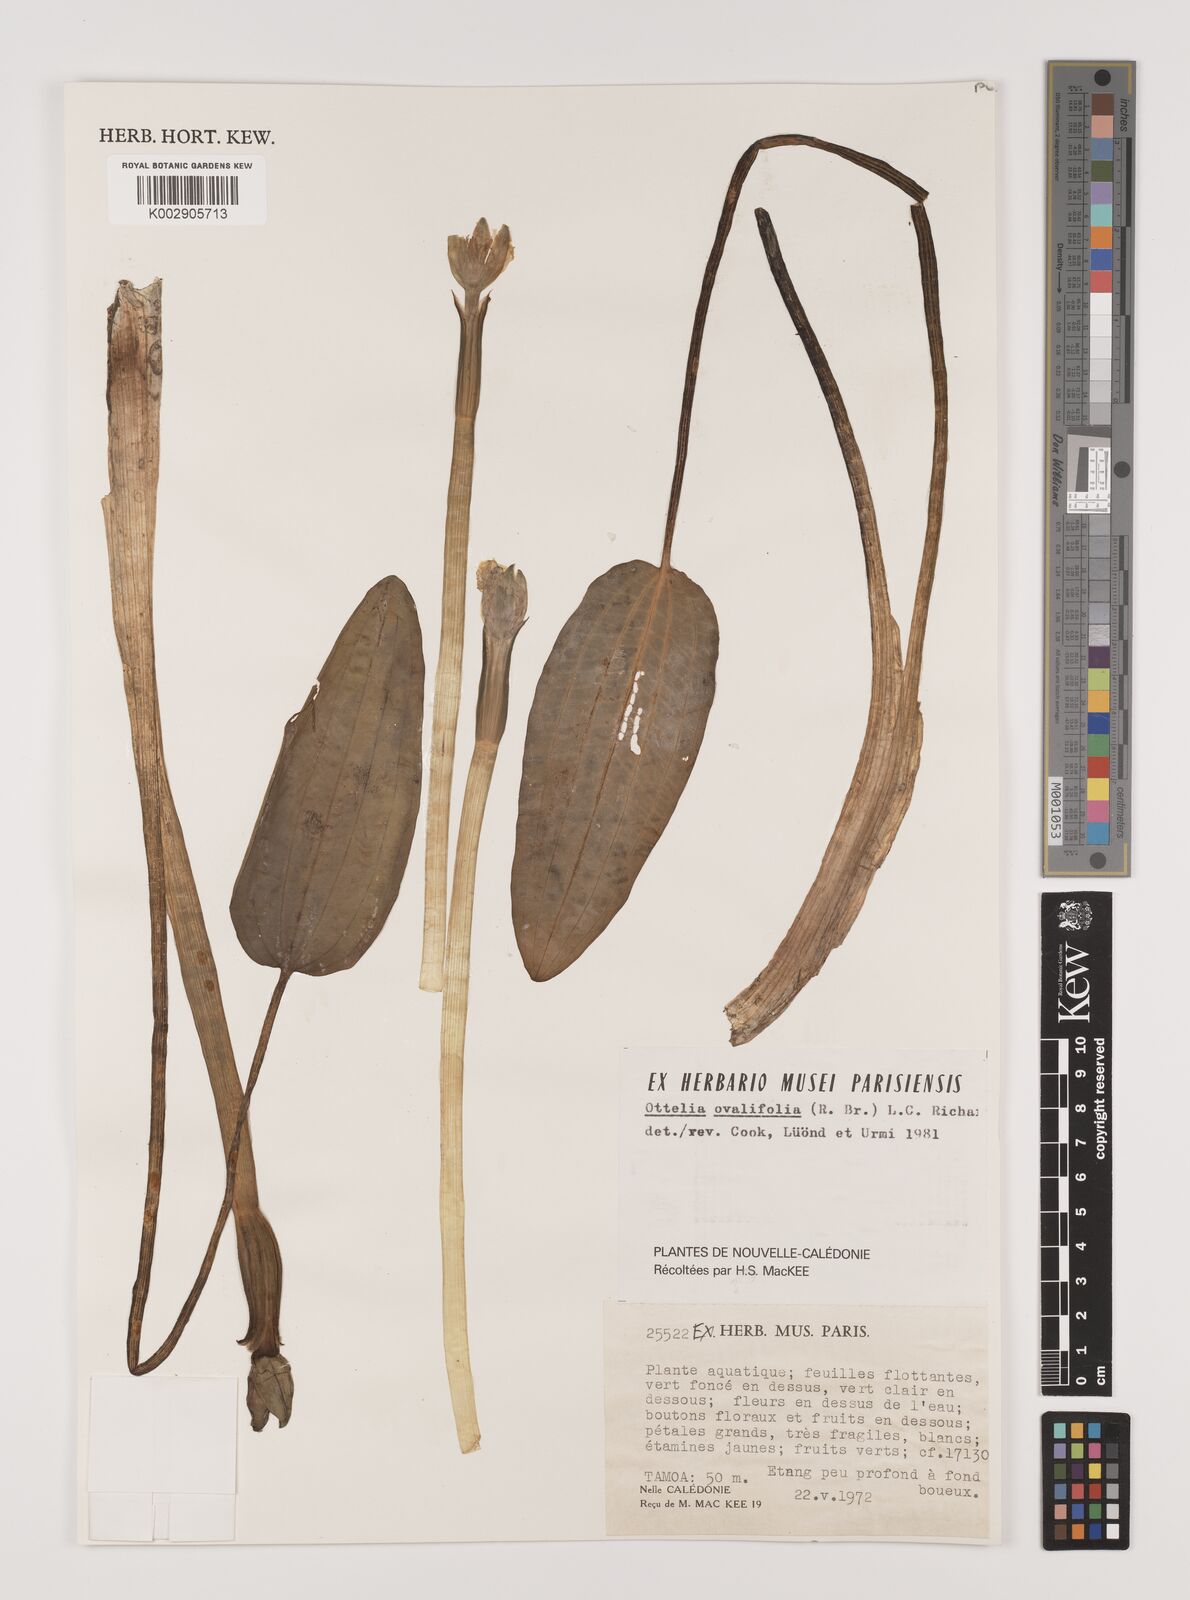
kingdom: Plantae
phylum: Tracheophyta
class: Liliopsida
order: Alismatales
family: Hydrocharitaceae
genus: Ottelia
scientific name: Ottelia ovalifolia
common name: Swamp-lily
